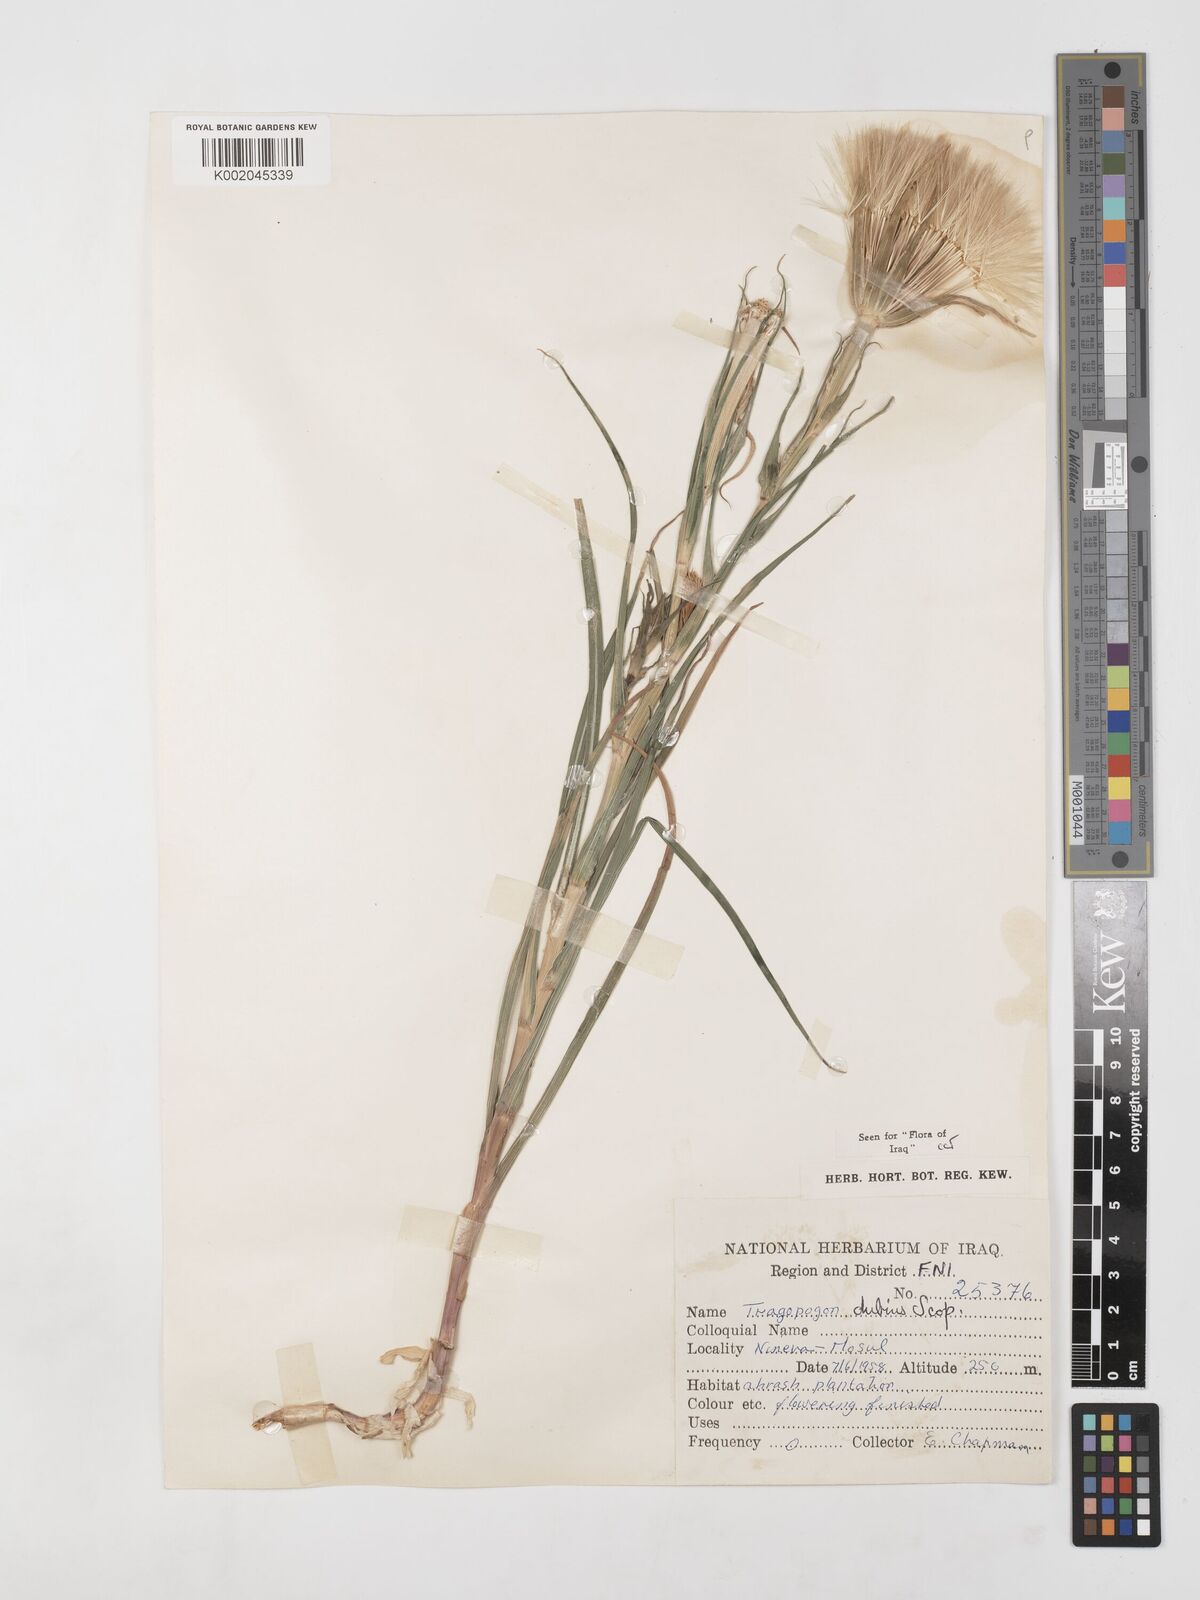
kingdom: Plantae
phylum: Tracheophyta
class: Magnoliopsida
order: Asterales
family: Asteraceae
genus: Tragopogon
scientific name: Tragopogon dubius
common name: Yellow salsify
